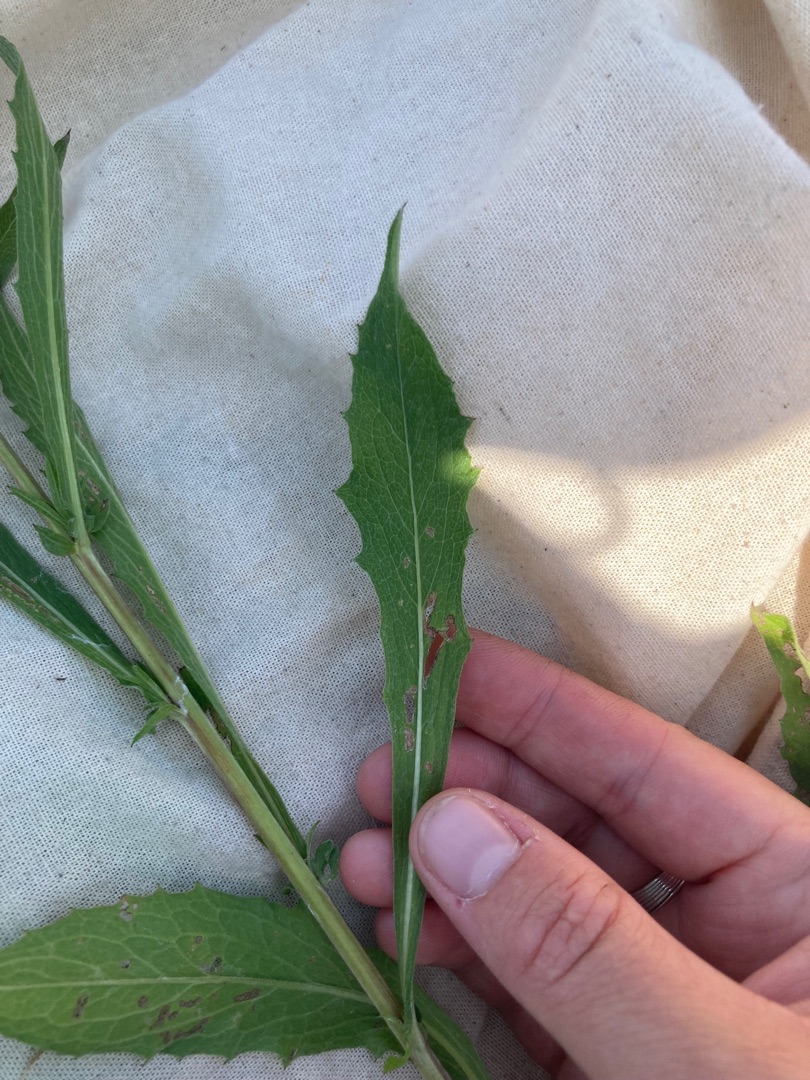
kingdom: Plantae
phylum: Tracheophyta
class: Magnoliopsida
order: Asterales
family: Asteraceae
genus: Centaurea
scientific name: Centaurea jacea
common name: Almindelig knopurt
